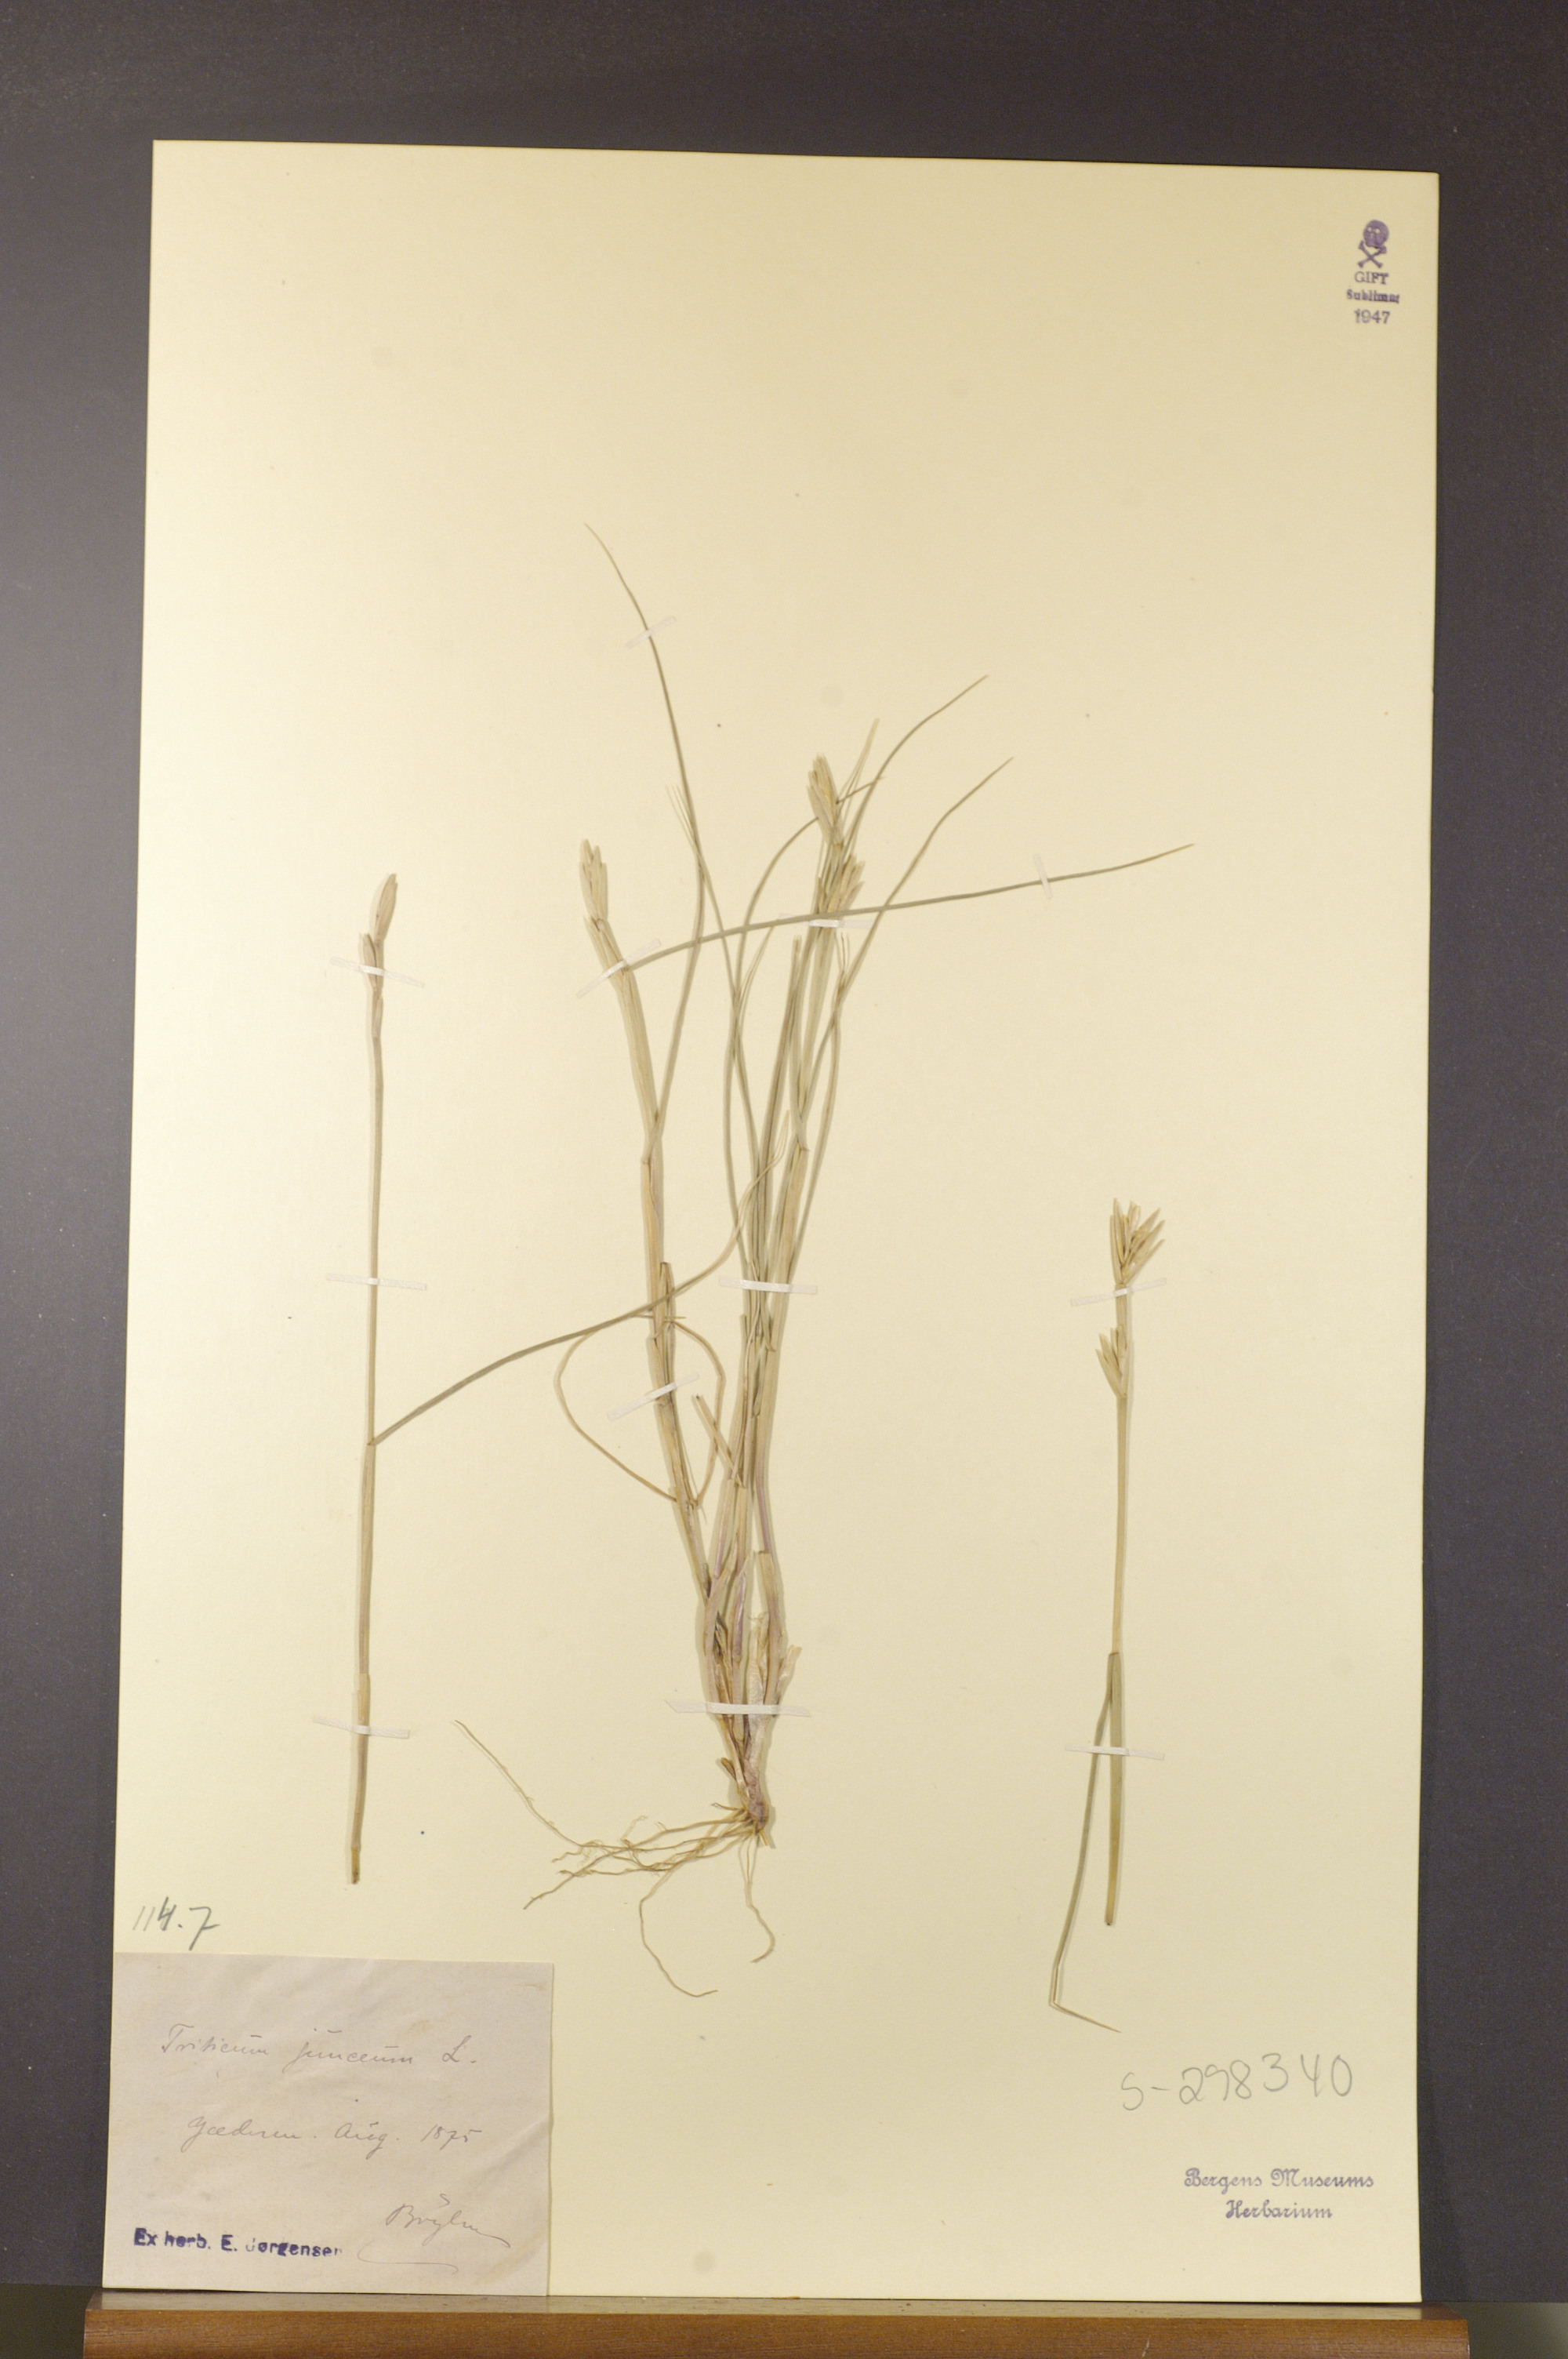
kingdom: Plantae
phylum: Tracheophyta
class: Liliopsida
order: Poales
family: Poaceae
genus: Thinopyrum
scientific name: Thinopyrum junceum
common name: Russian wheatgrass
